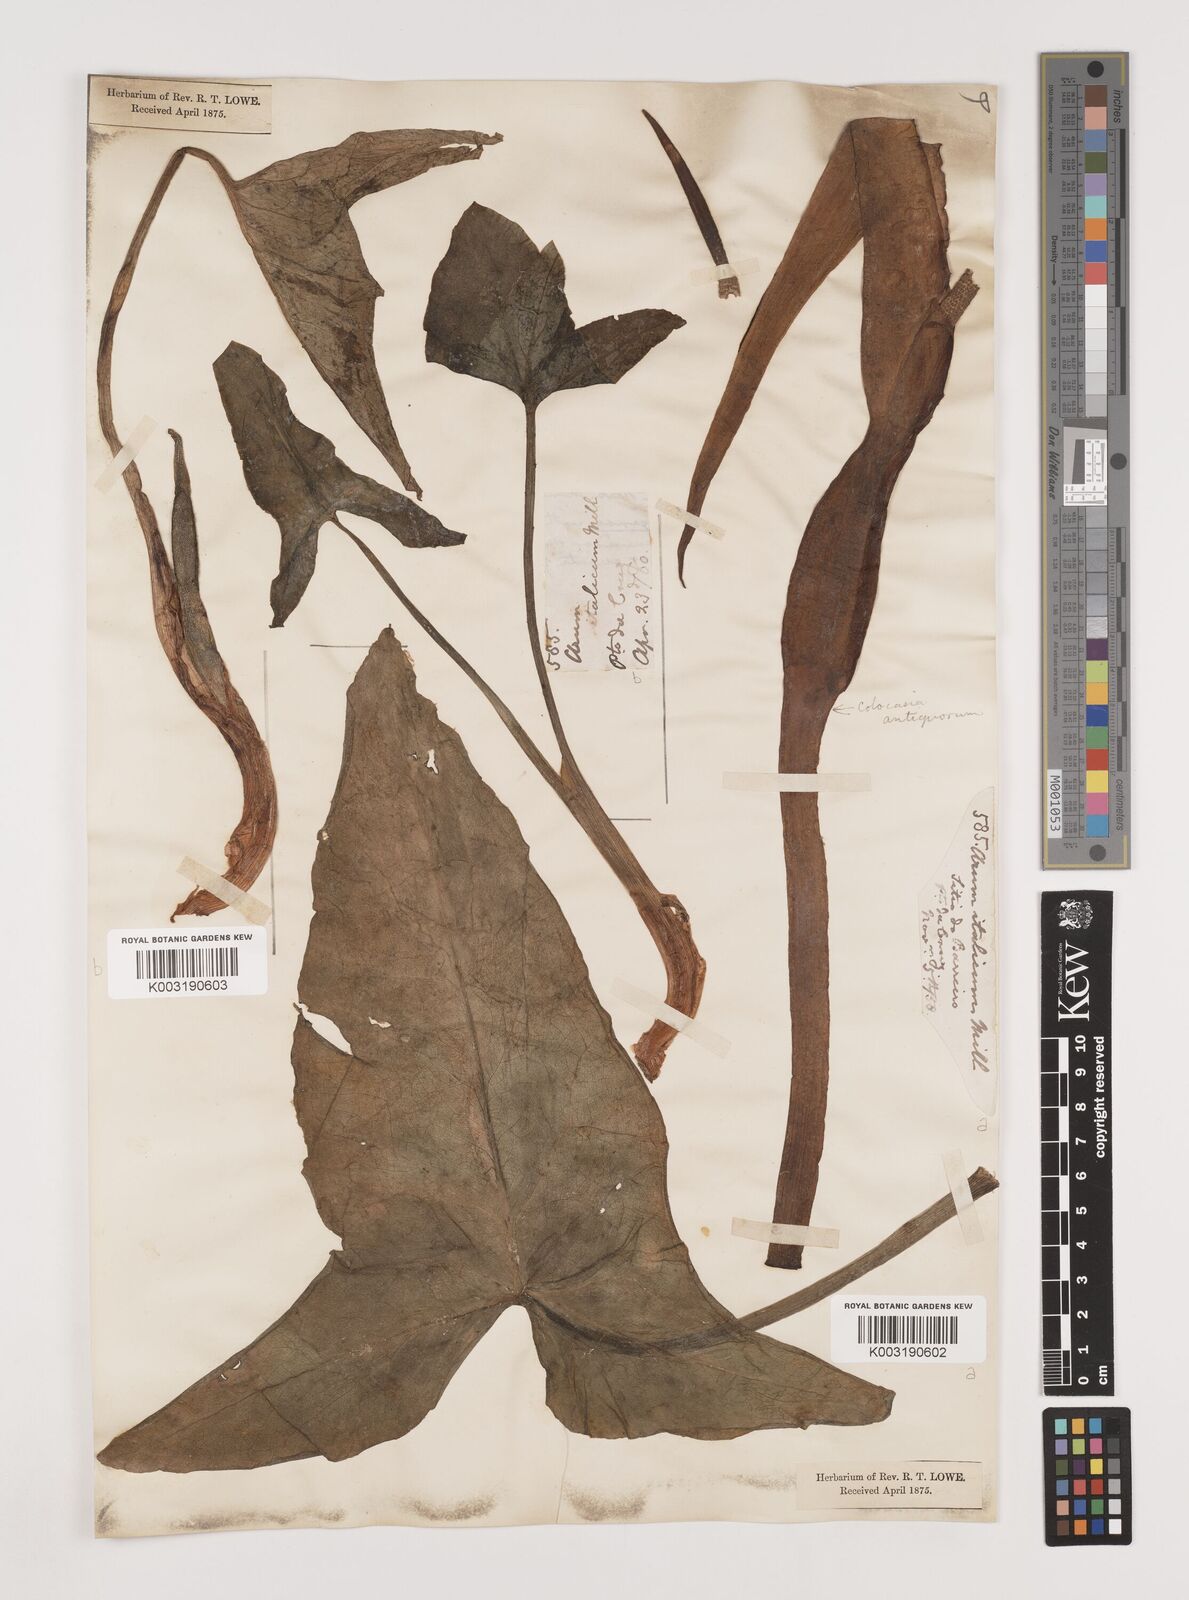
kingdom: Plantae
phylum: Tracheophyta
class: Liliopsida
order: Alismatales
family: Araceae
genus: Arum
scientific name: Arum italicum
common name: Italian lords-and-ladies
